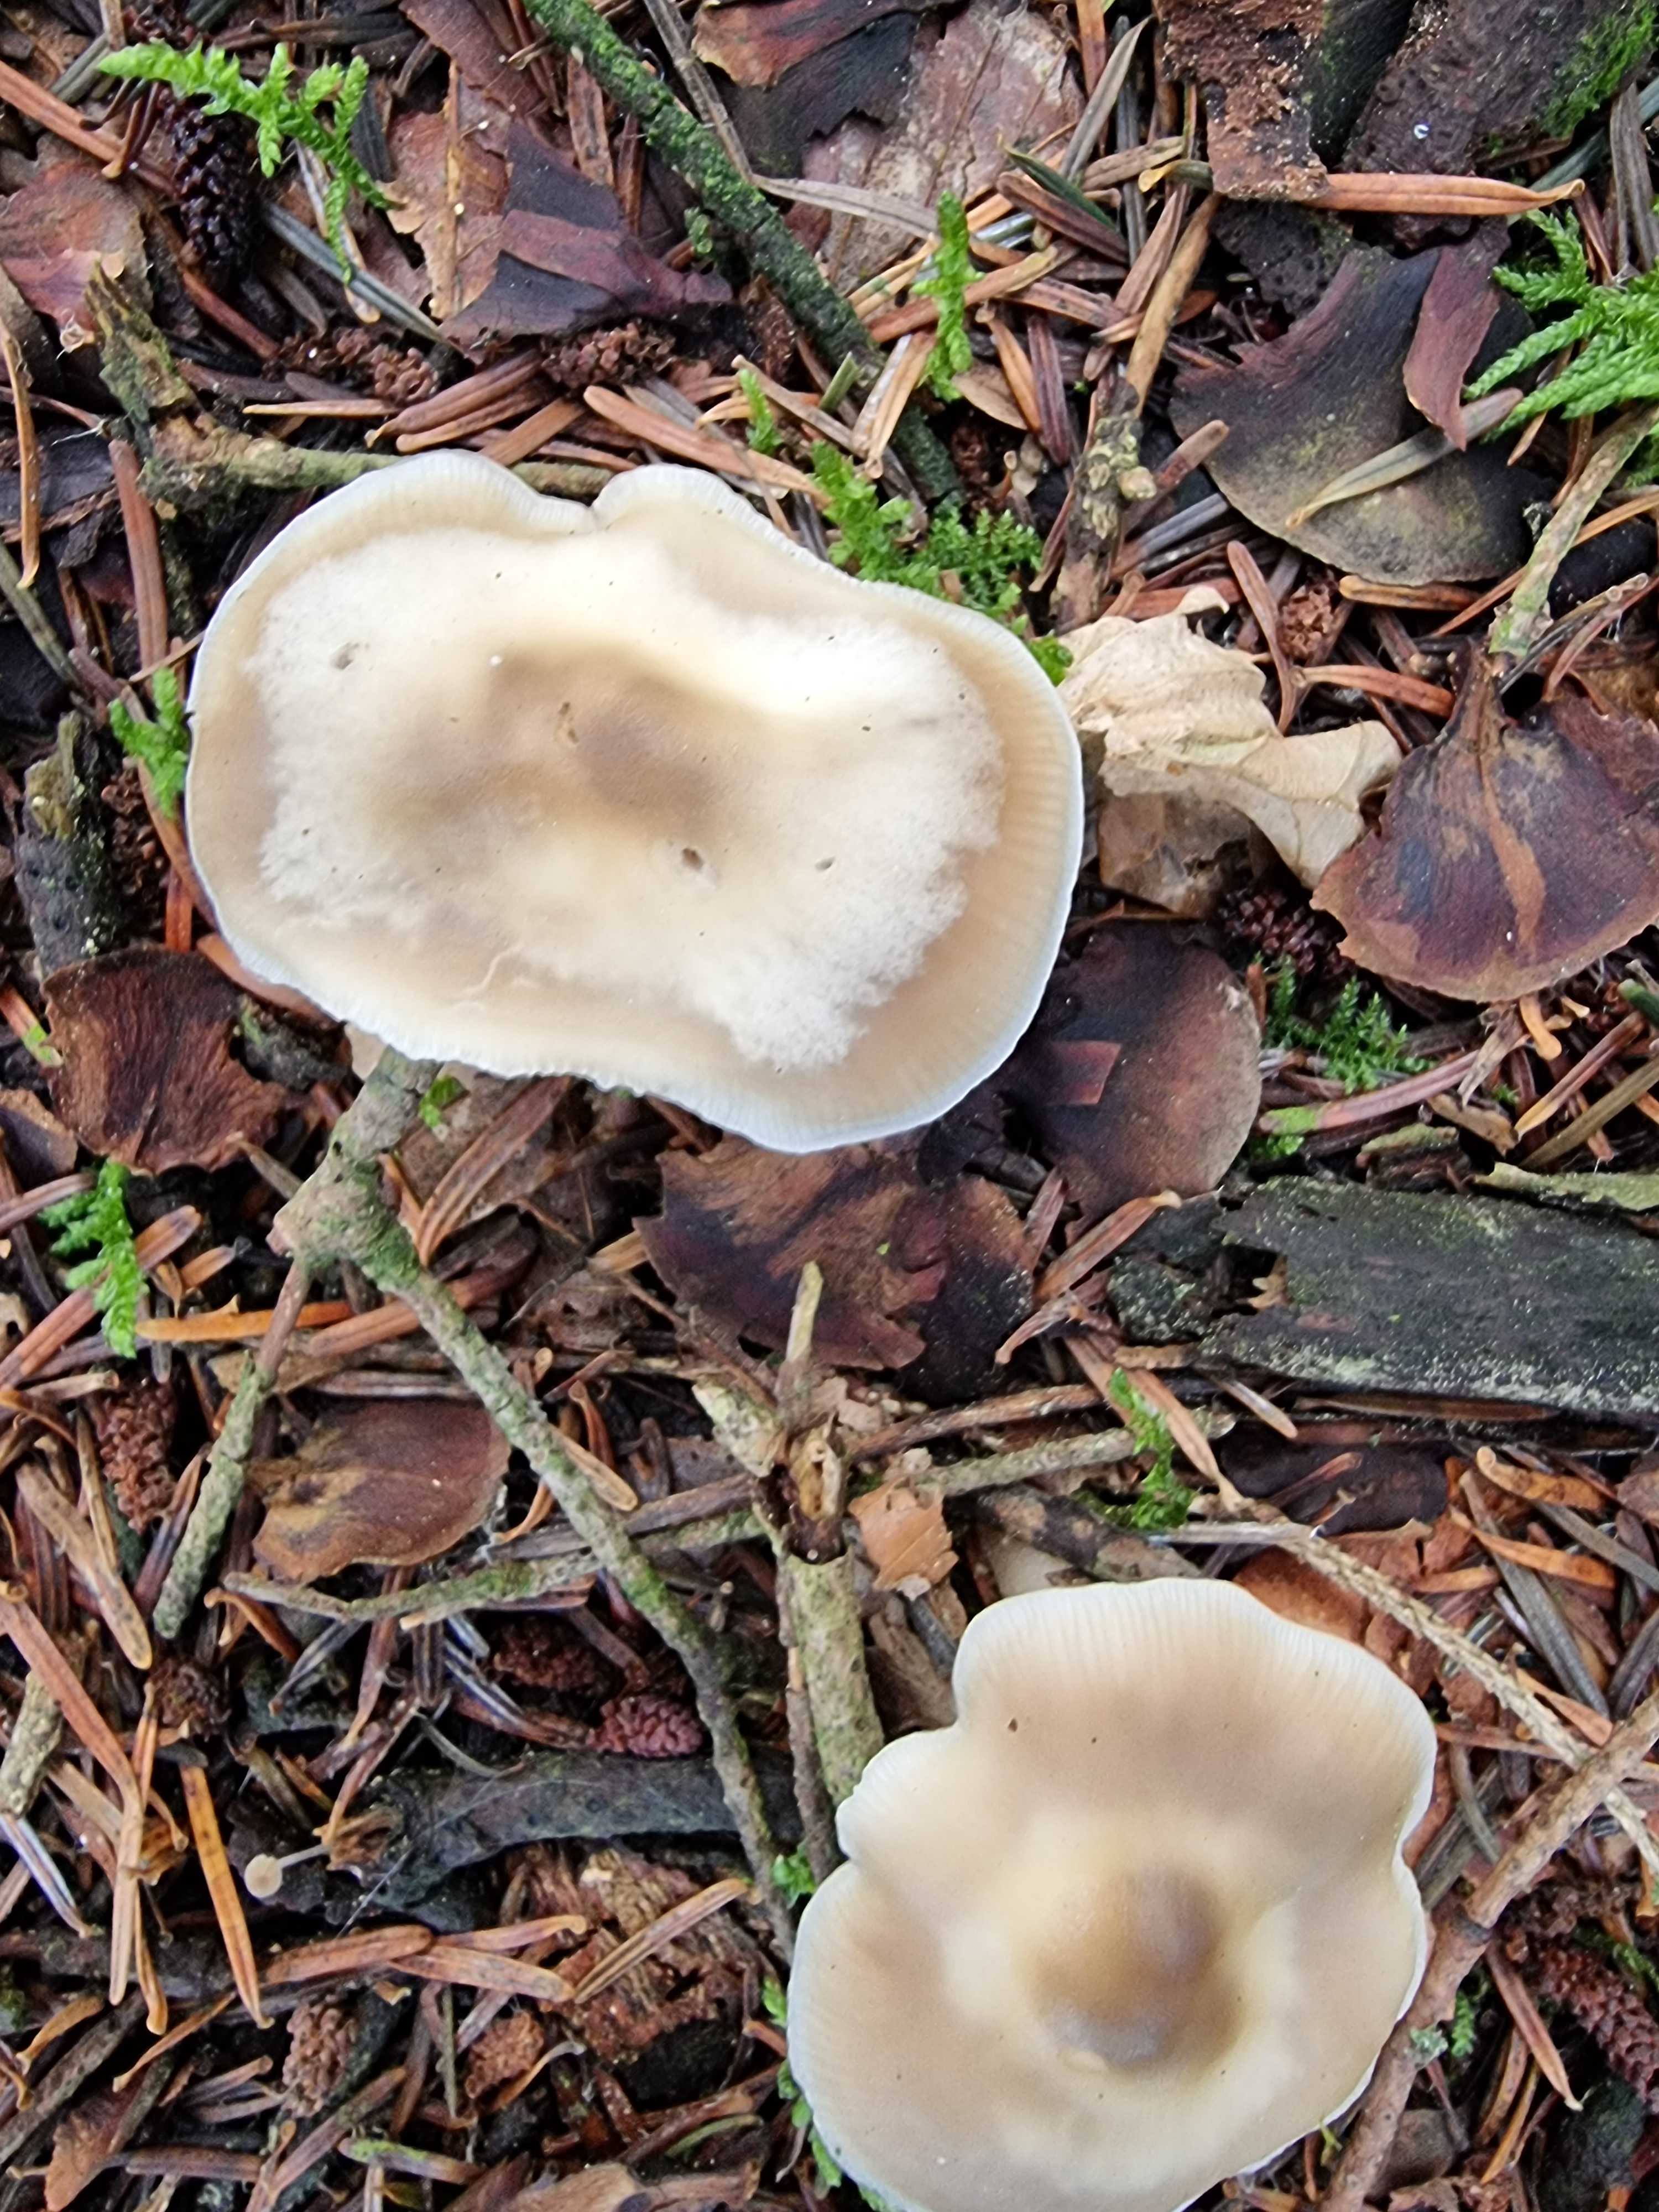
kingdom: Fungi
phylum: Basidiomycota
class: Agaricomycetes
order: Agaricales
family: Omphalotaceae
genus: Rhodocollybia
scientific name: Rhodocollybia asema
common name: horngrå fladhat
